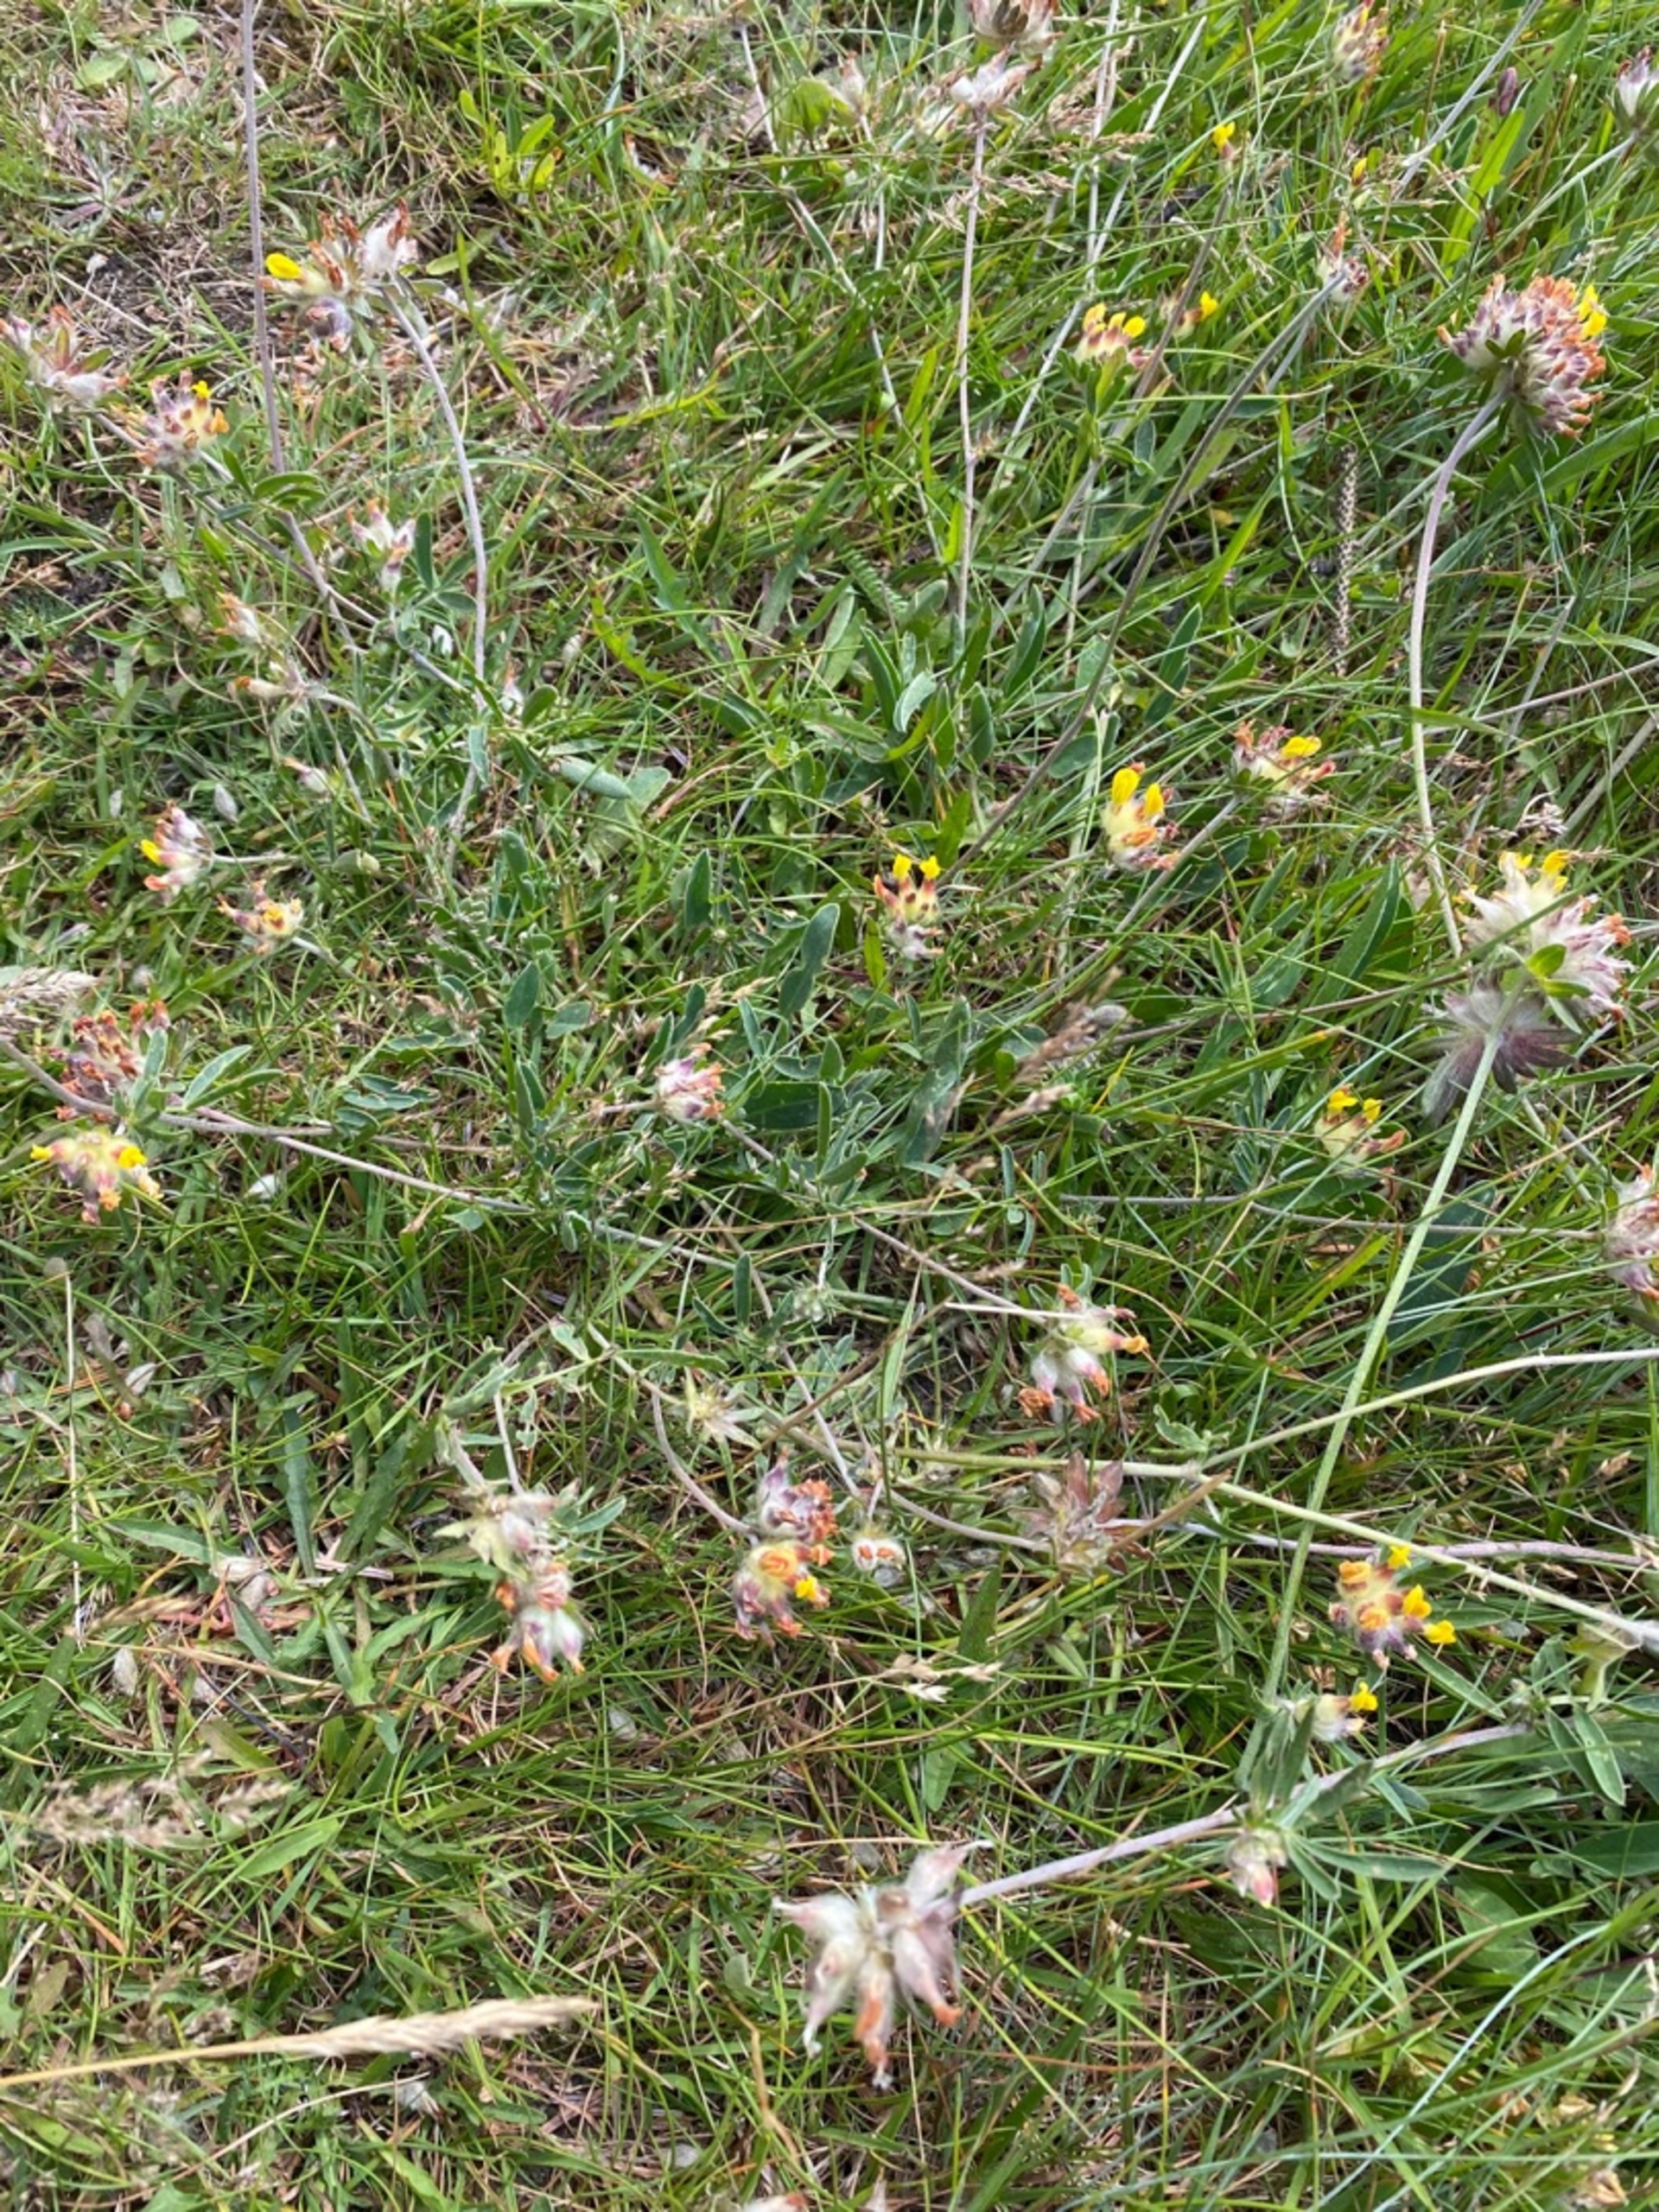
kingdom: Plantae
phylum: Tracheophyta
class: Magnoliopsida
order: Fabales
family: Fabaceae
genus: Anthyllis
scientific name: Anthyllis vulneraria
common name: Rundbælg
